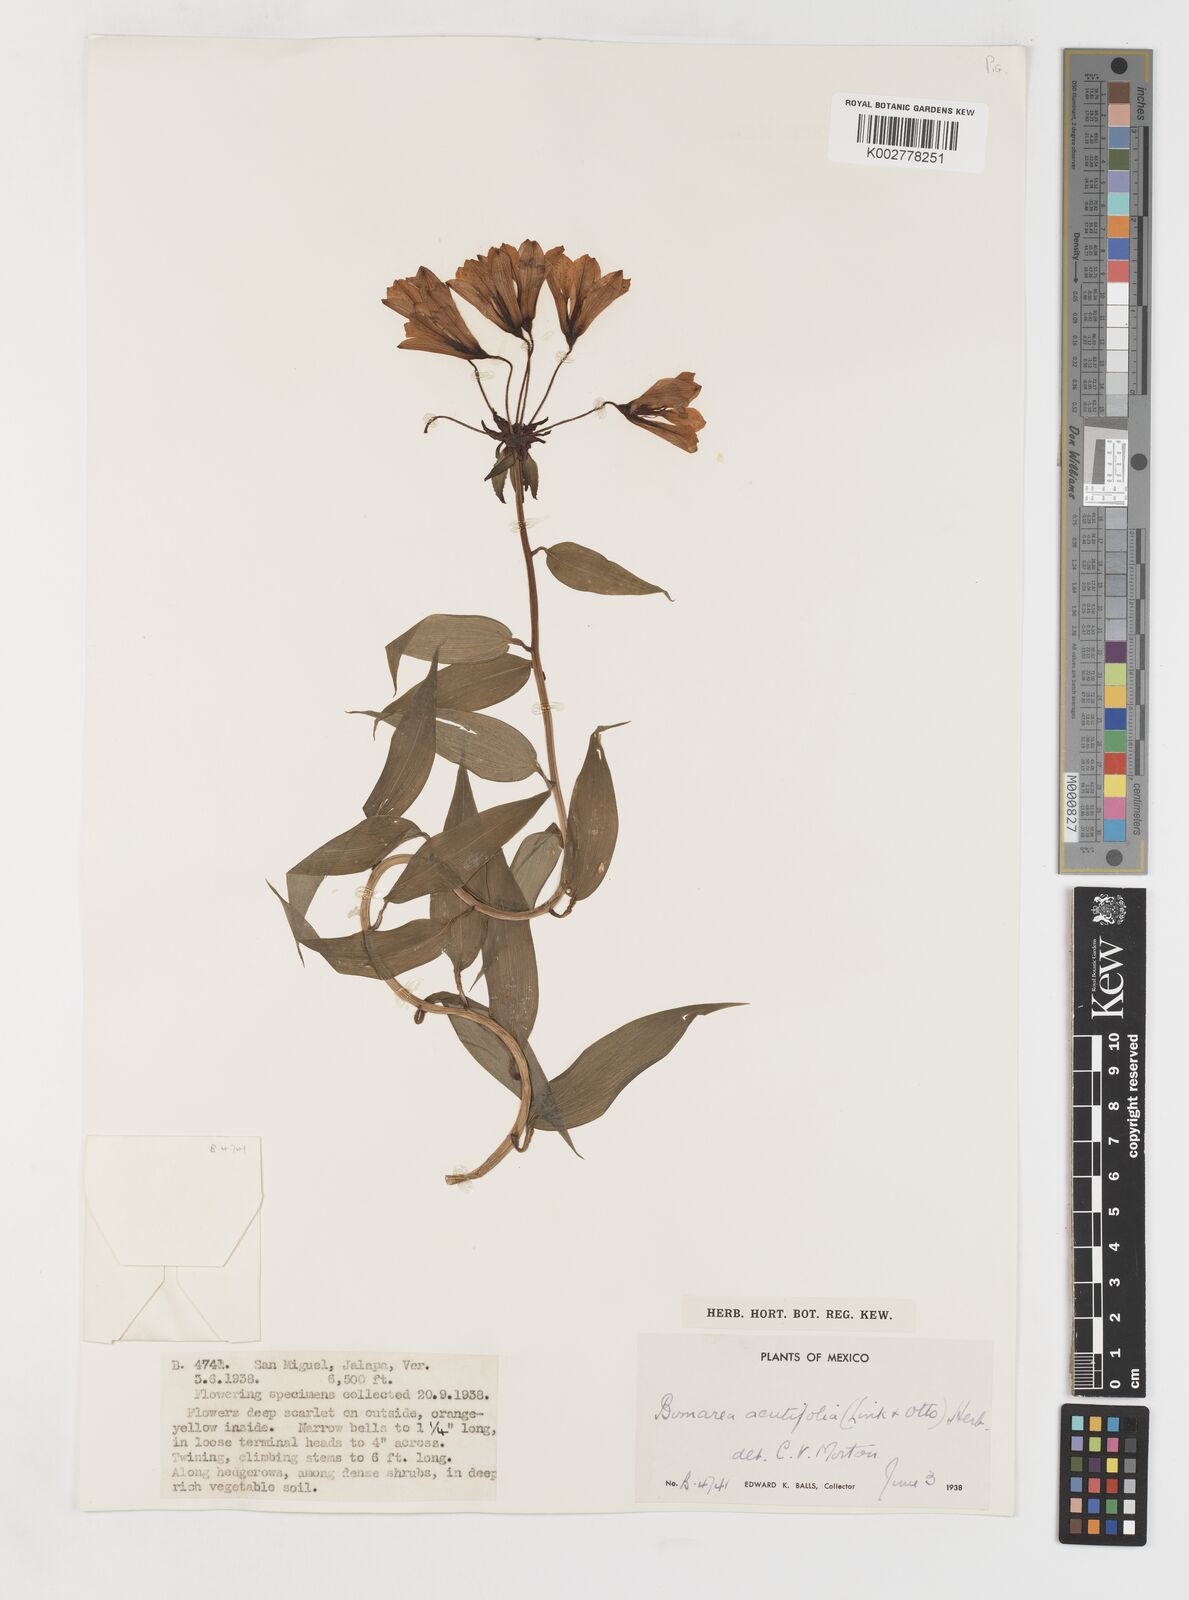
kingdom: Plantae
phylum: Tracheophyta
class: Liliopsida
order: Liliales
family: Alstroemeriaceae
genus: Bomarea
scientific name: Bomarea acutifolia
